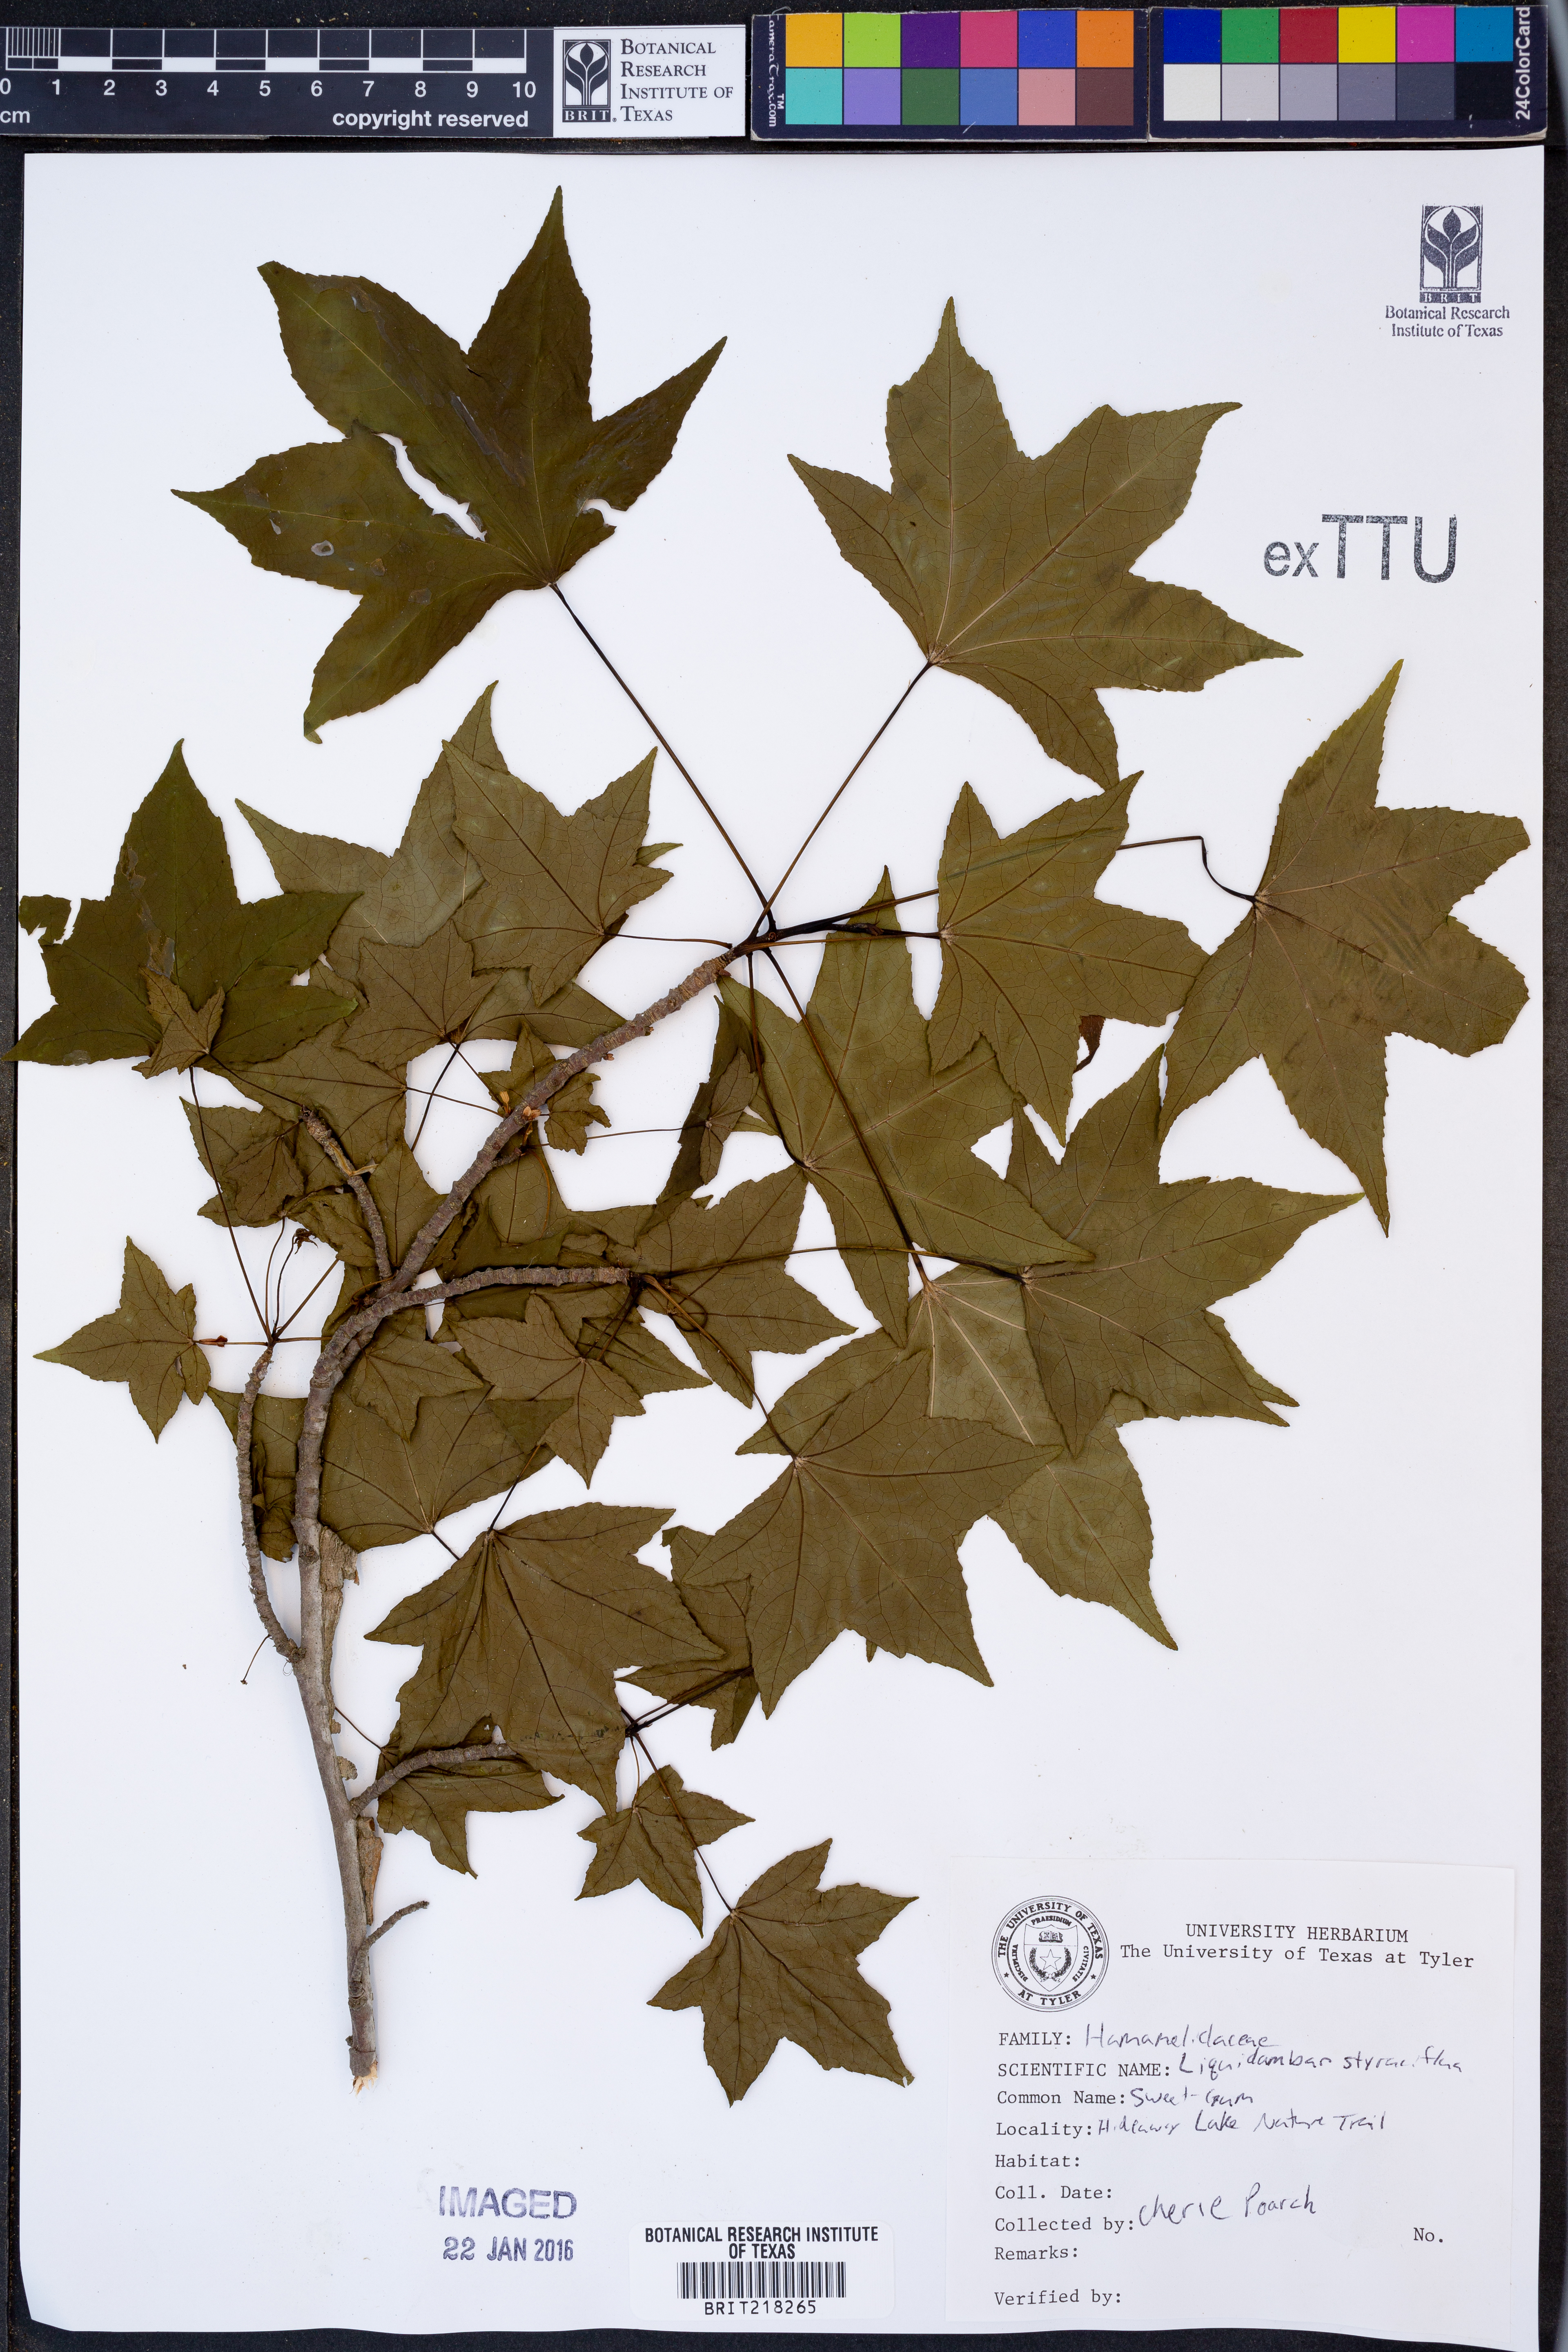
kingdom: Plantae
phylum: Tracheophyta
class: Magnoliopsida
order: Saxifragales
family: Altingiaceae
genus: Liquidambar
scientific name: Liquidambar styraciflua
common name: Sweet gum
